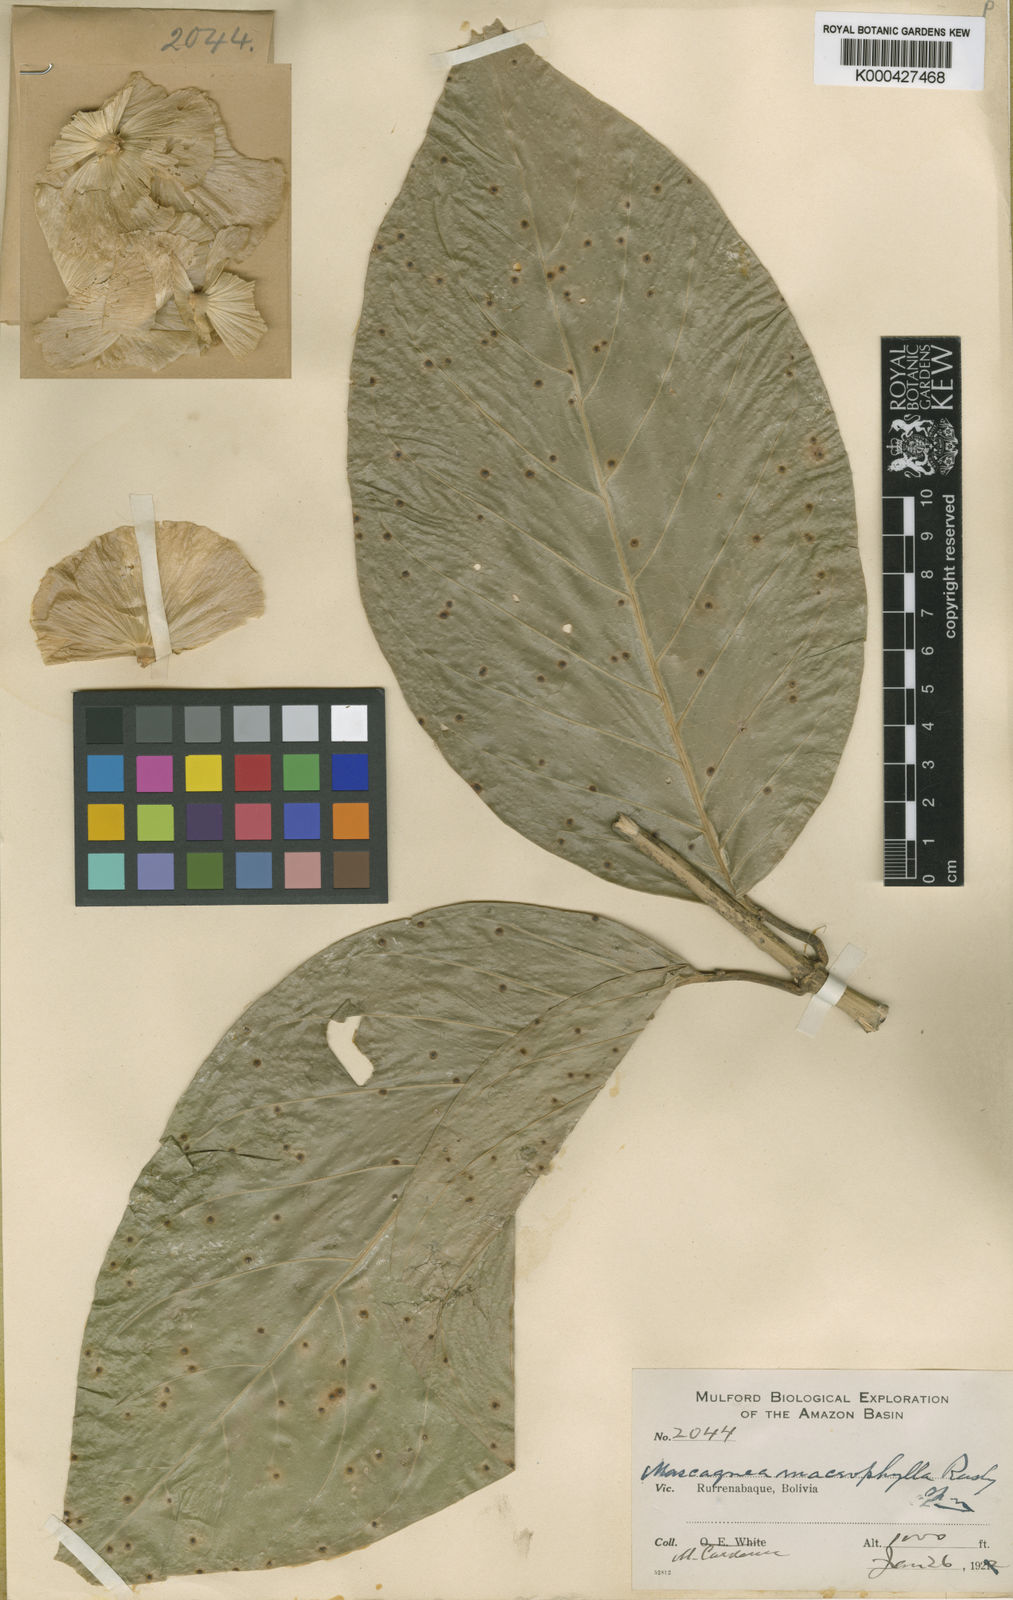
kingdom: Plantae
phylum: Tracheophyta
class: Magnoliopsida
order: Malpighiales
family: Malpighiaceae
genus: Adelphia
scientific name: Adelphia macrophylla
